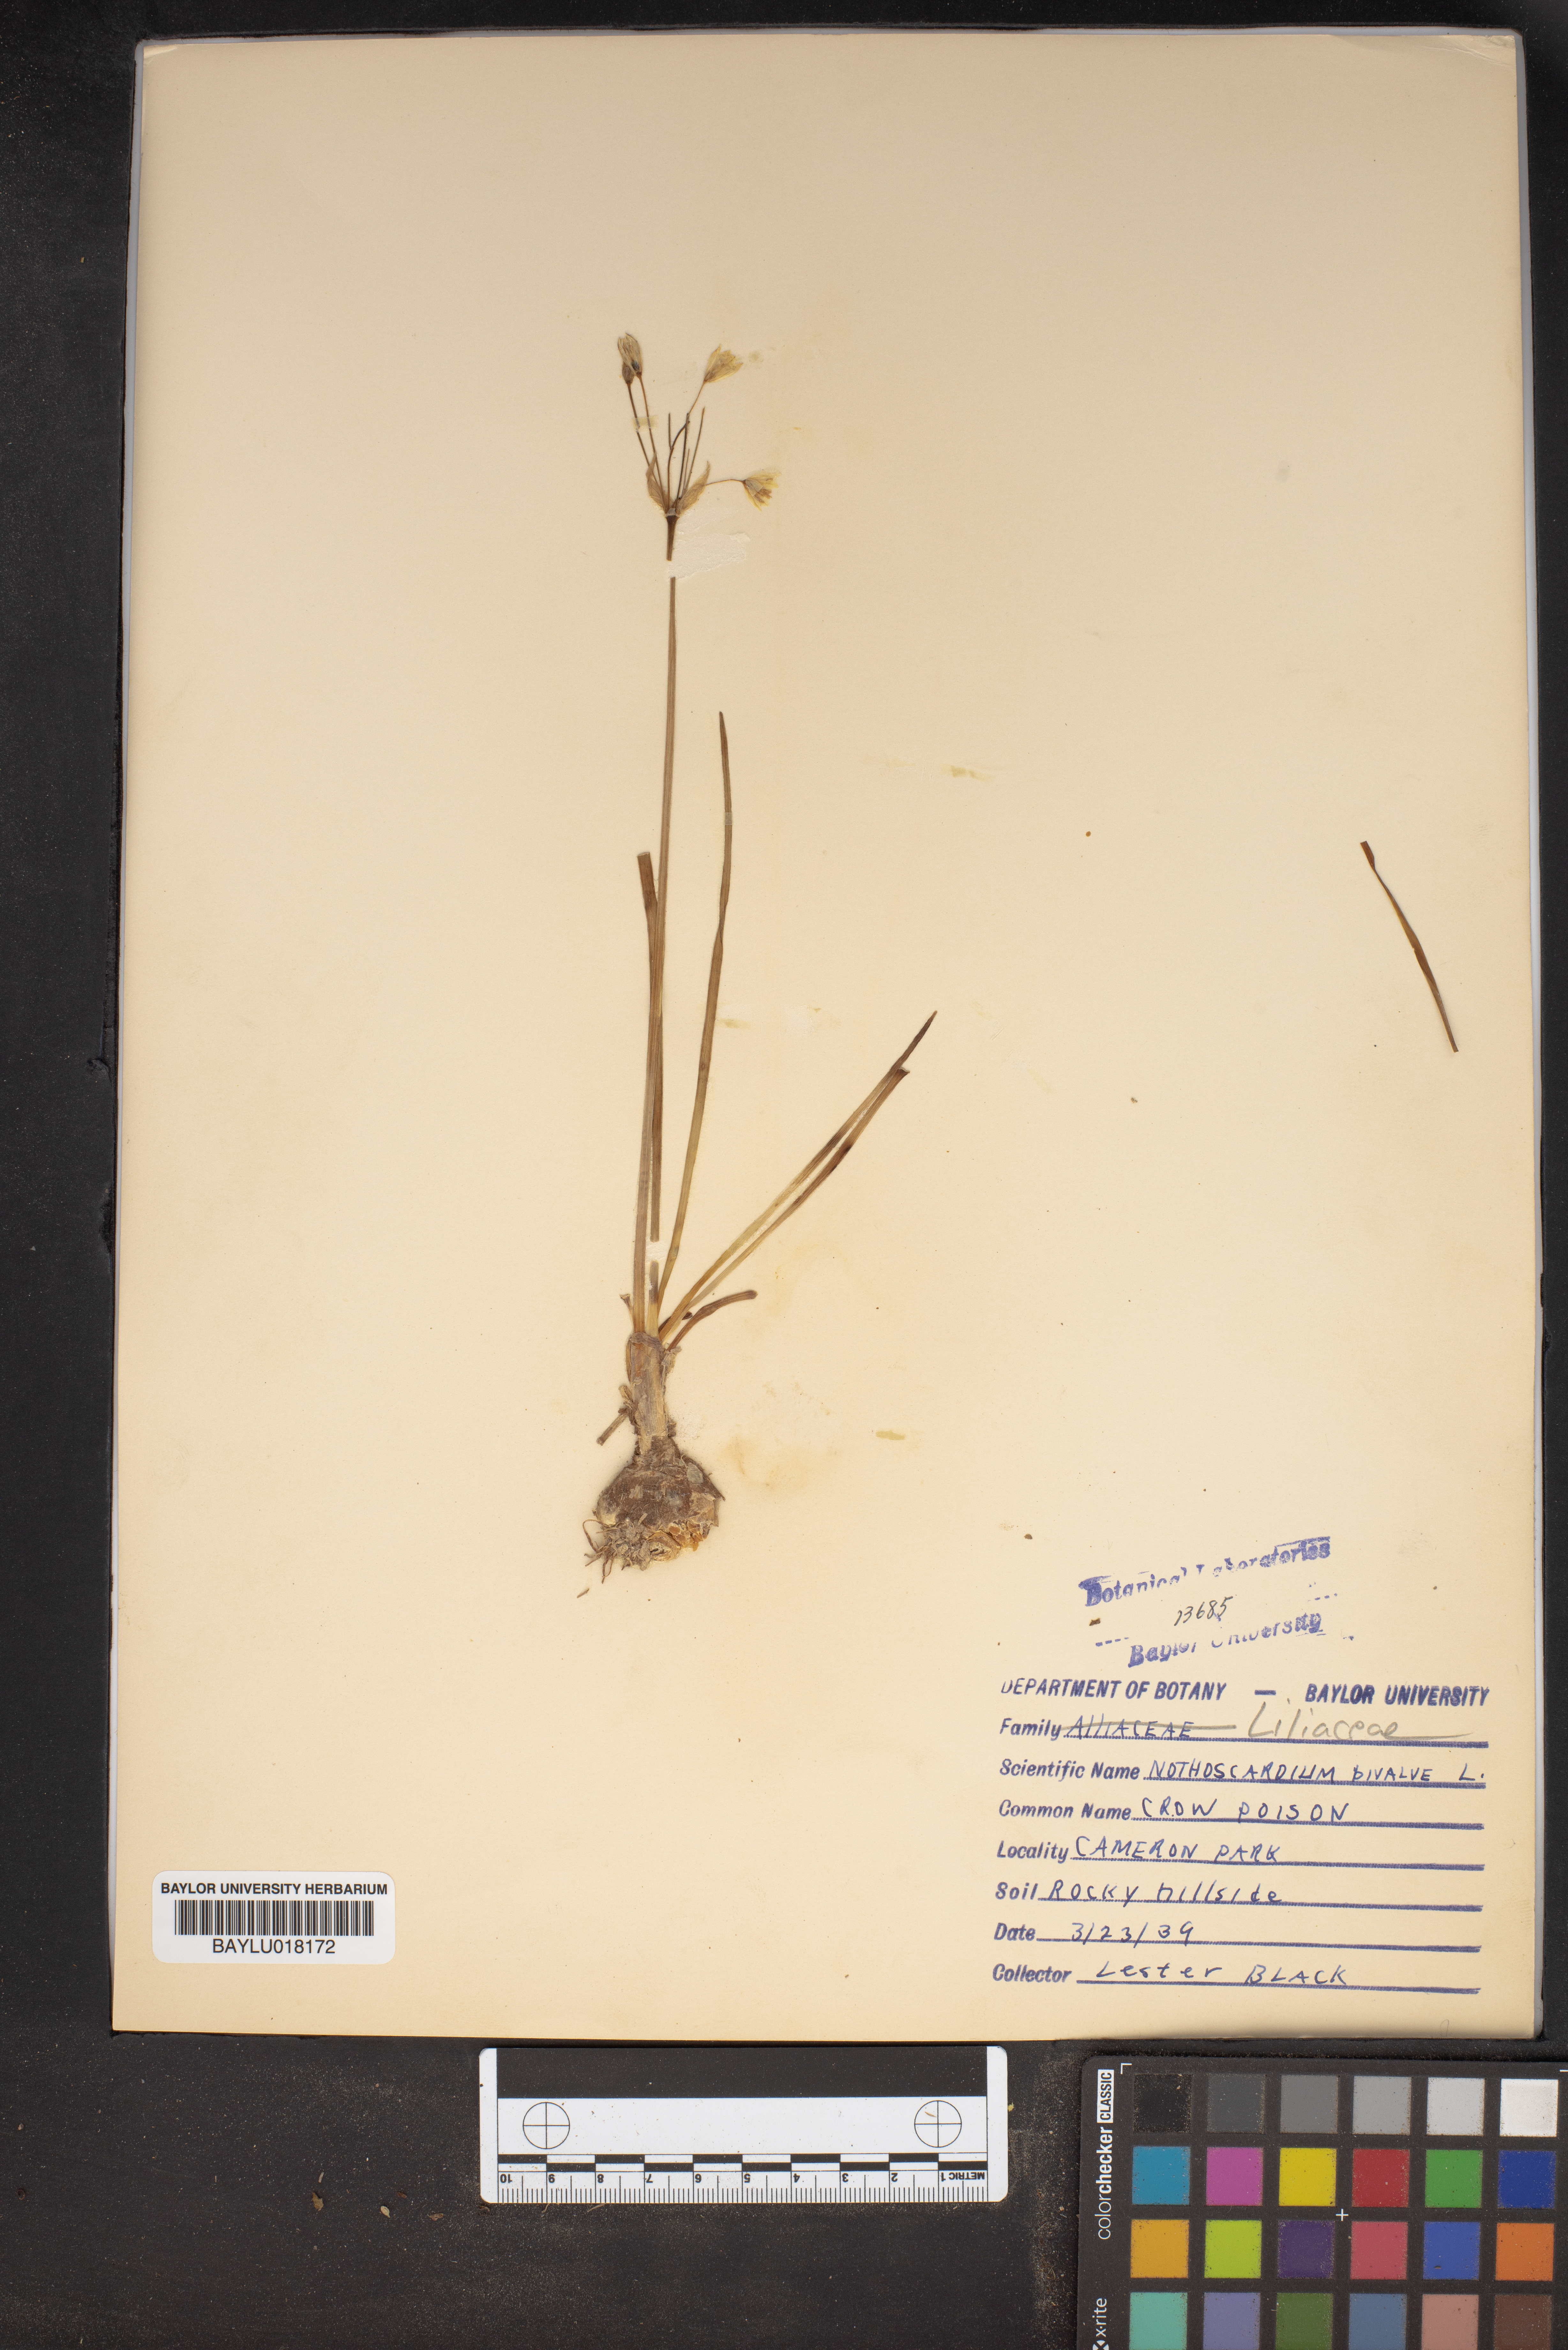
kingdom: Plantae
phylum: Tracheophyta
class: Liliopsida
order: Asparagales
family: Amaryllidaceae
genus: Nothoscordum
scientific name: Nothoscordum bivalve
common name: Crow-poison
